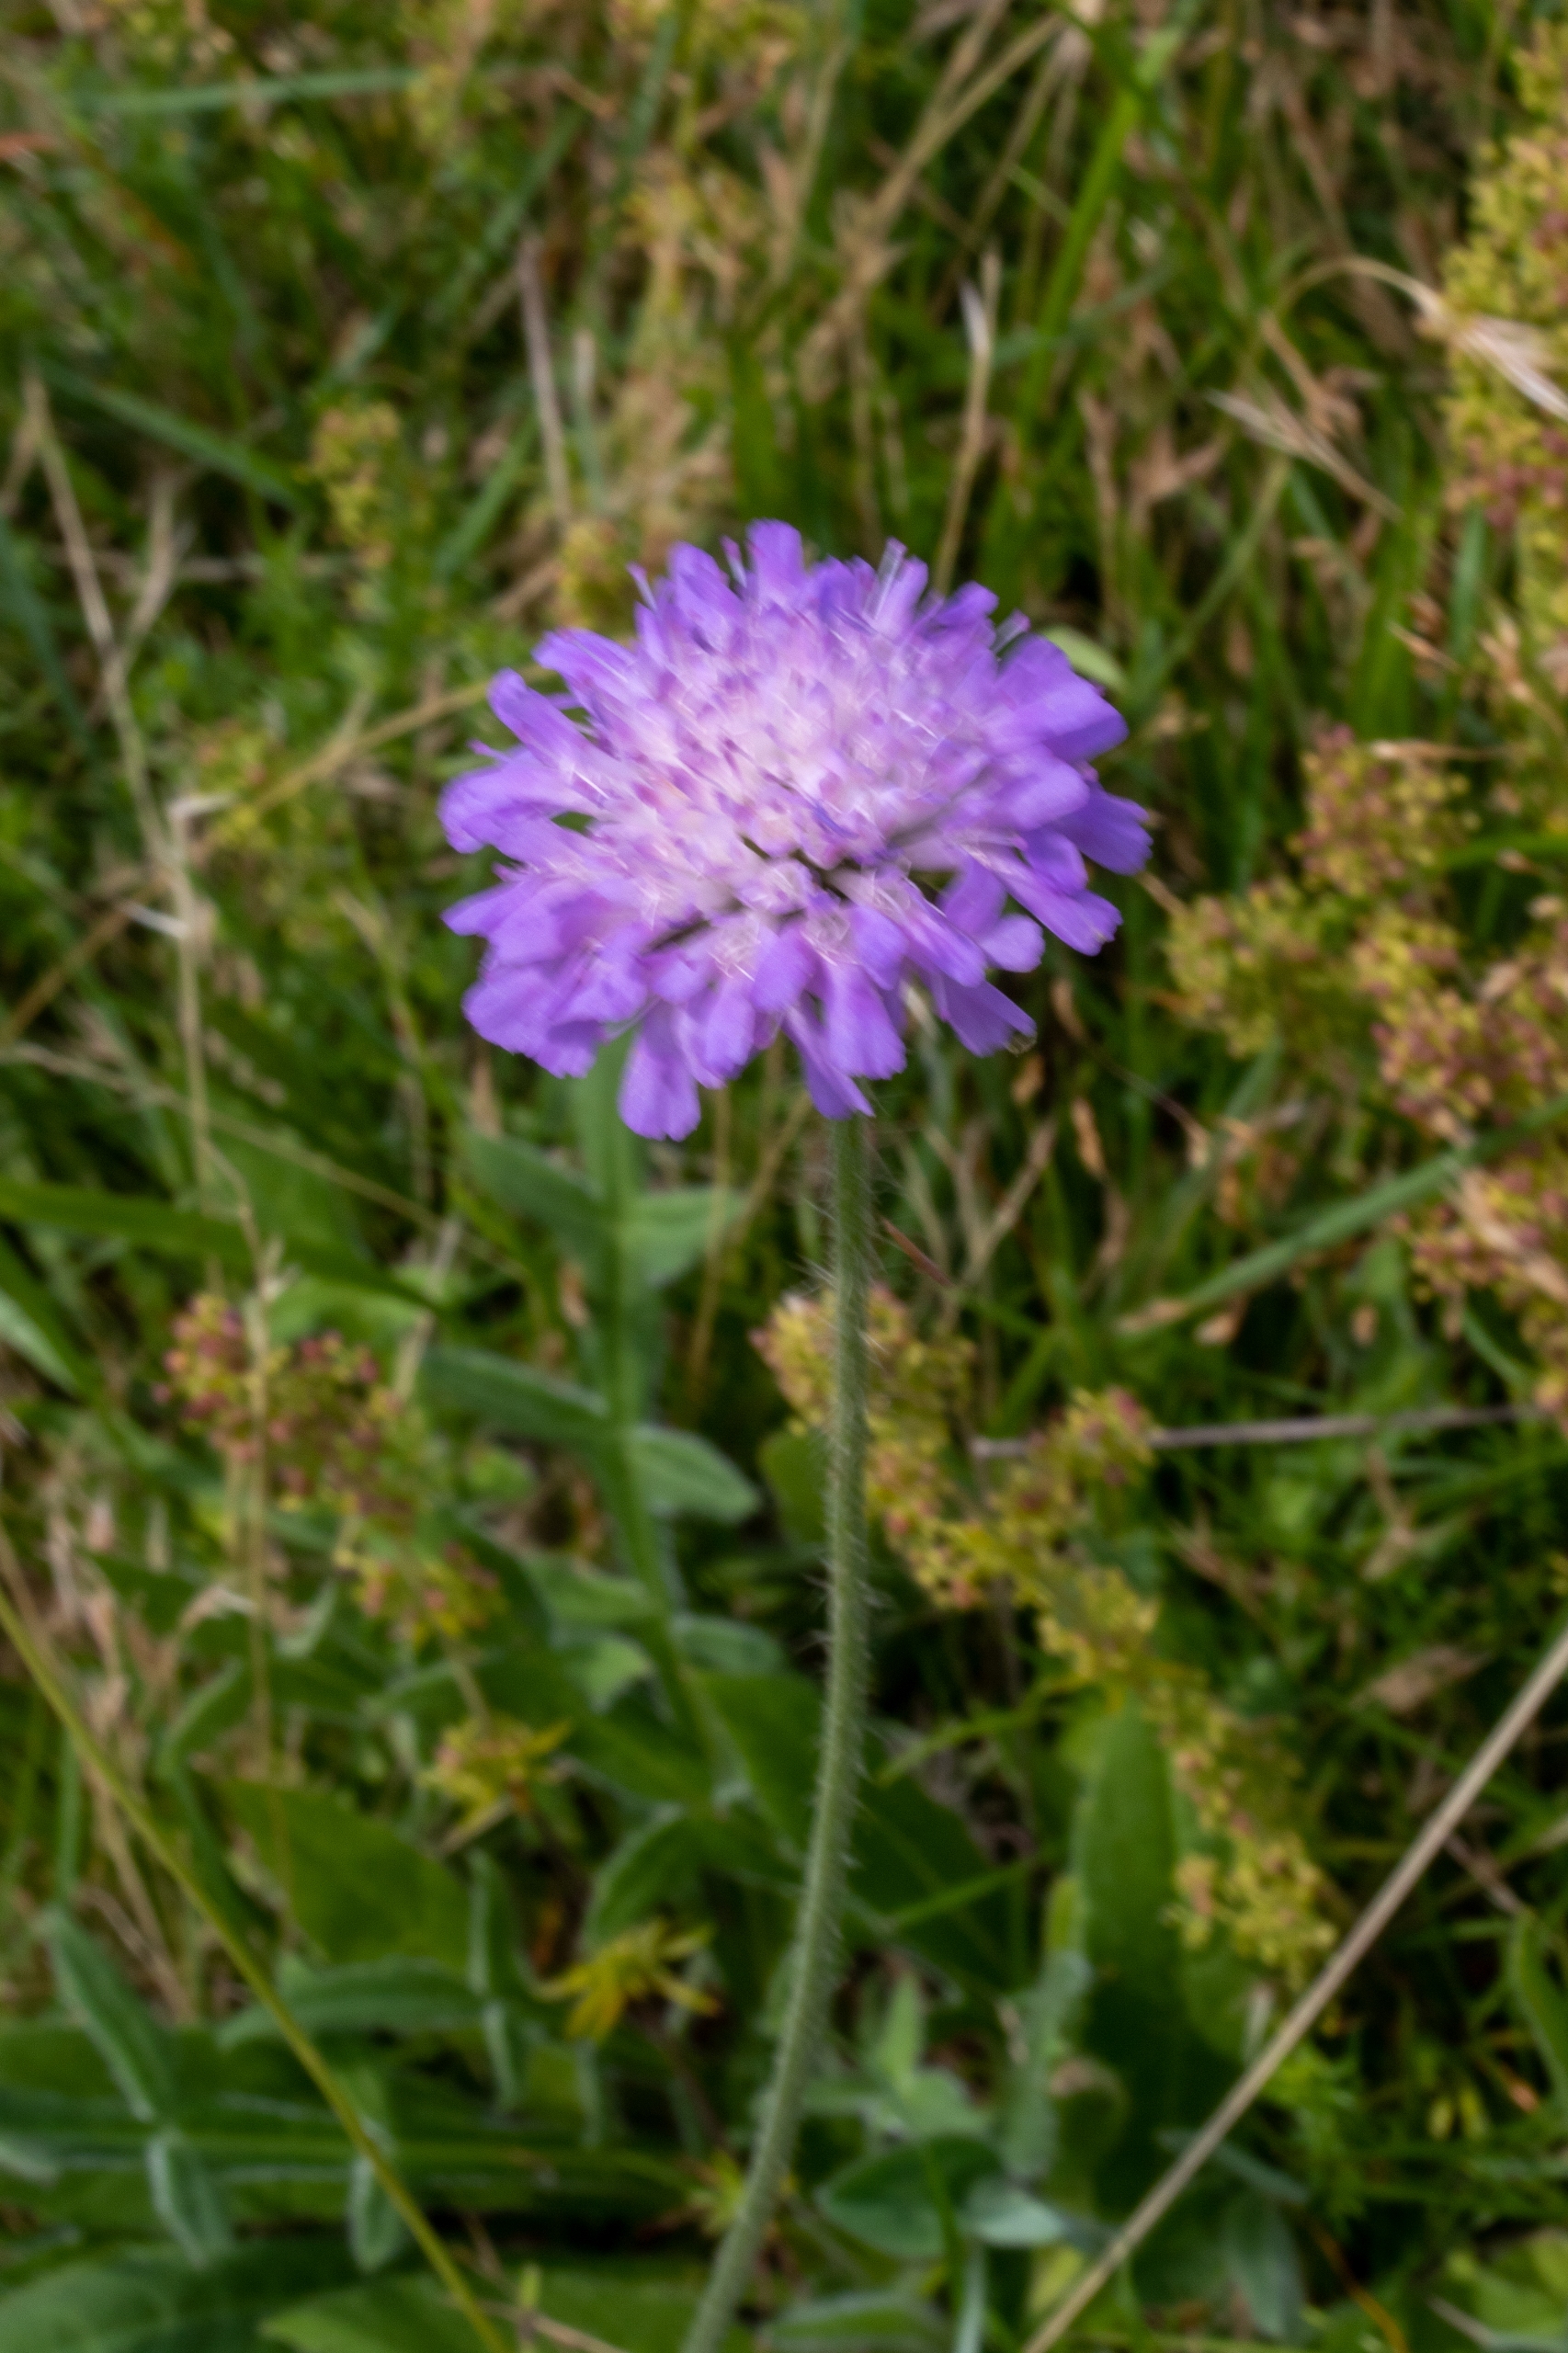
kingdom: Plantae
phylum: Tracheophyta
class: Magnoliopsida
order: Dipsacales
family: Caprifoliaceae
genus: Knautia
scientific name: Knautia arvensis
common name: Blåhat
